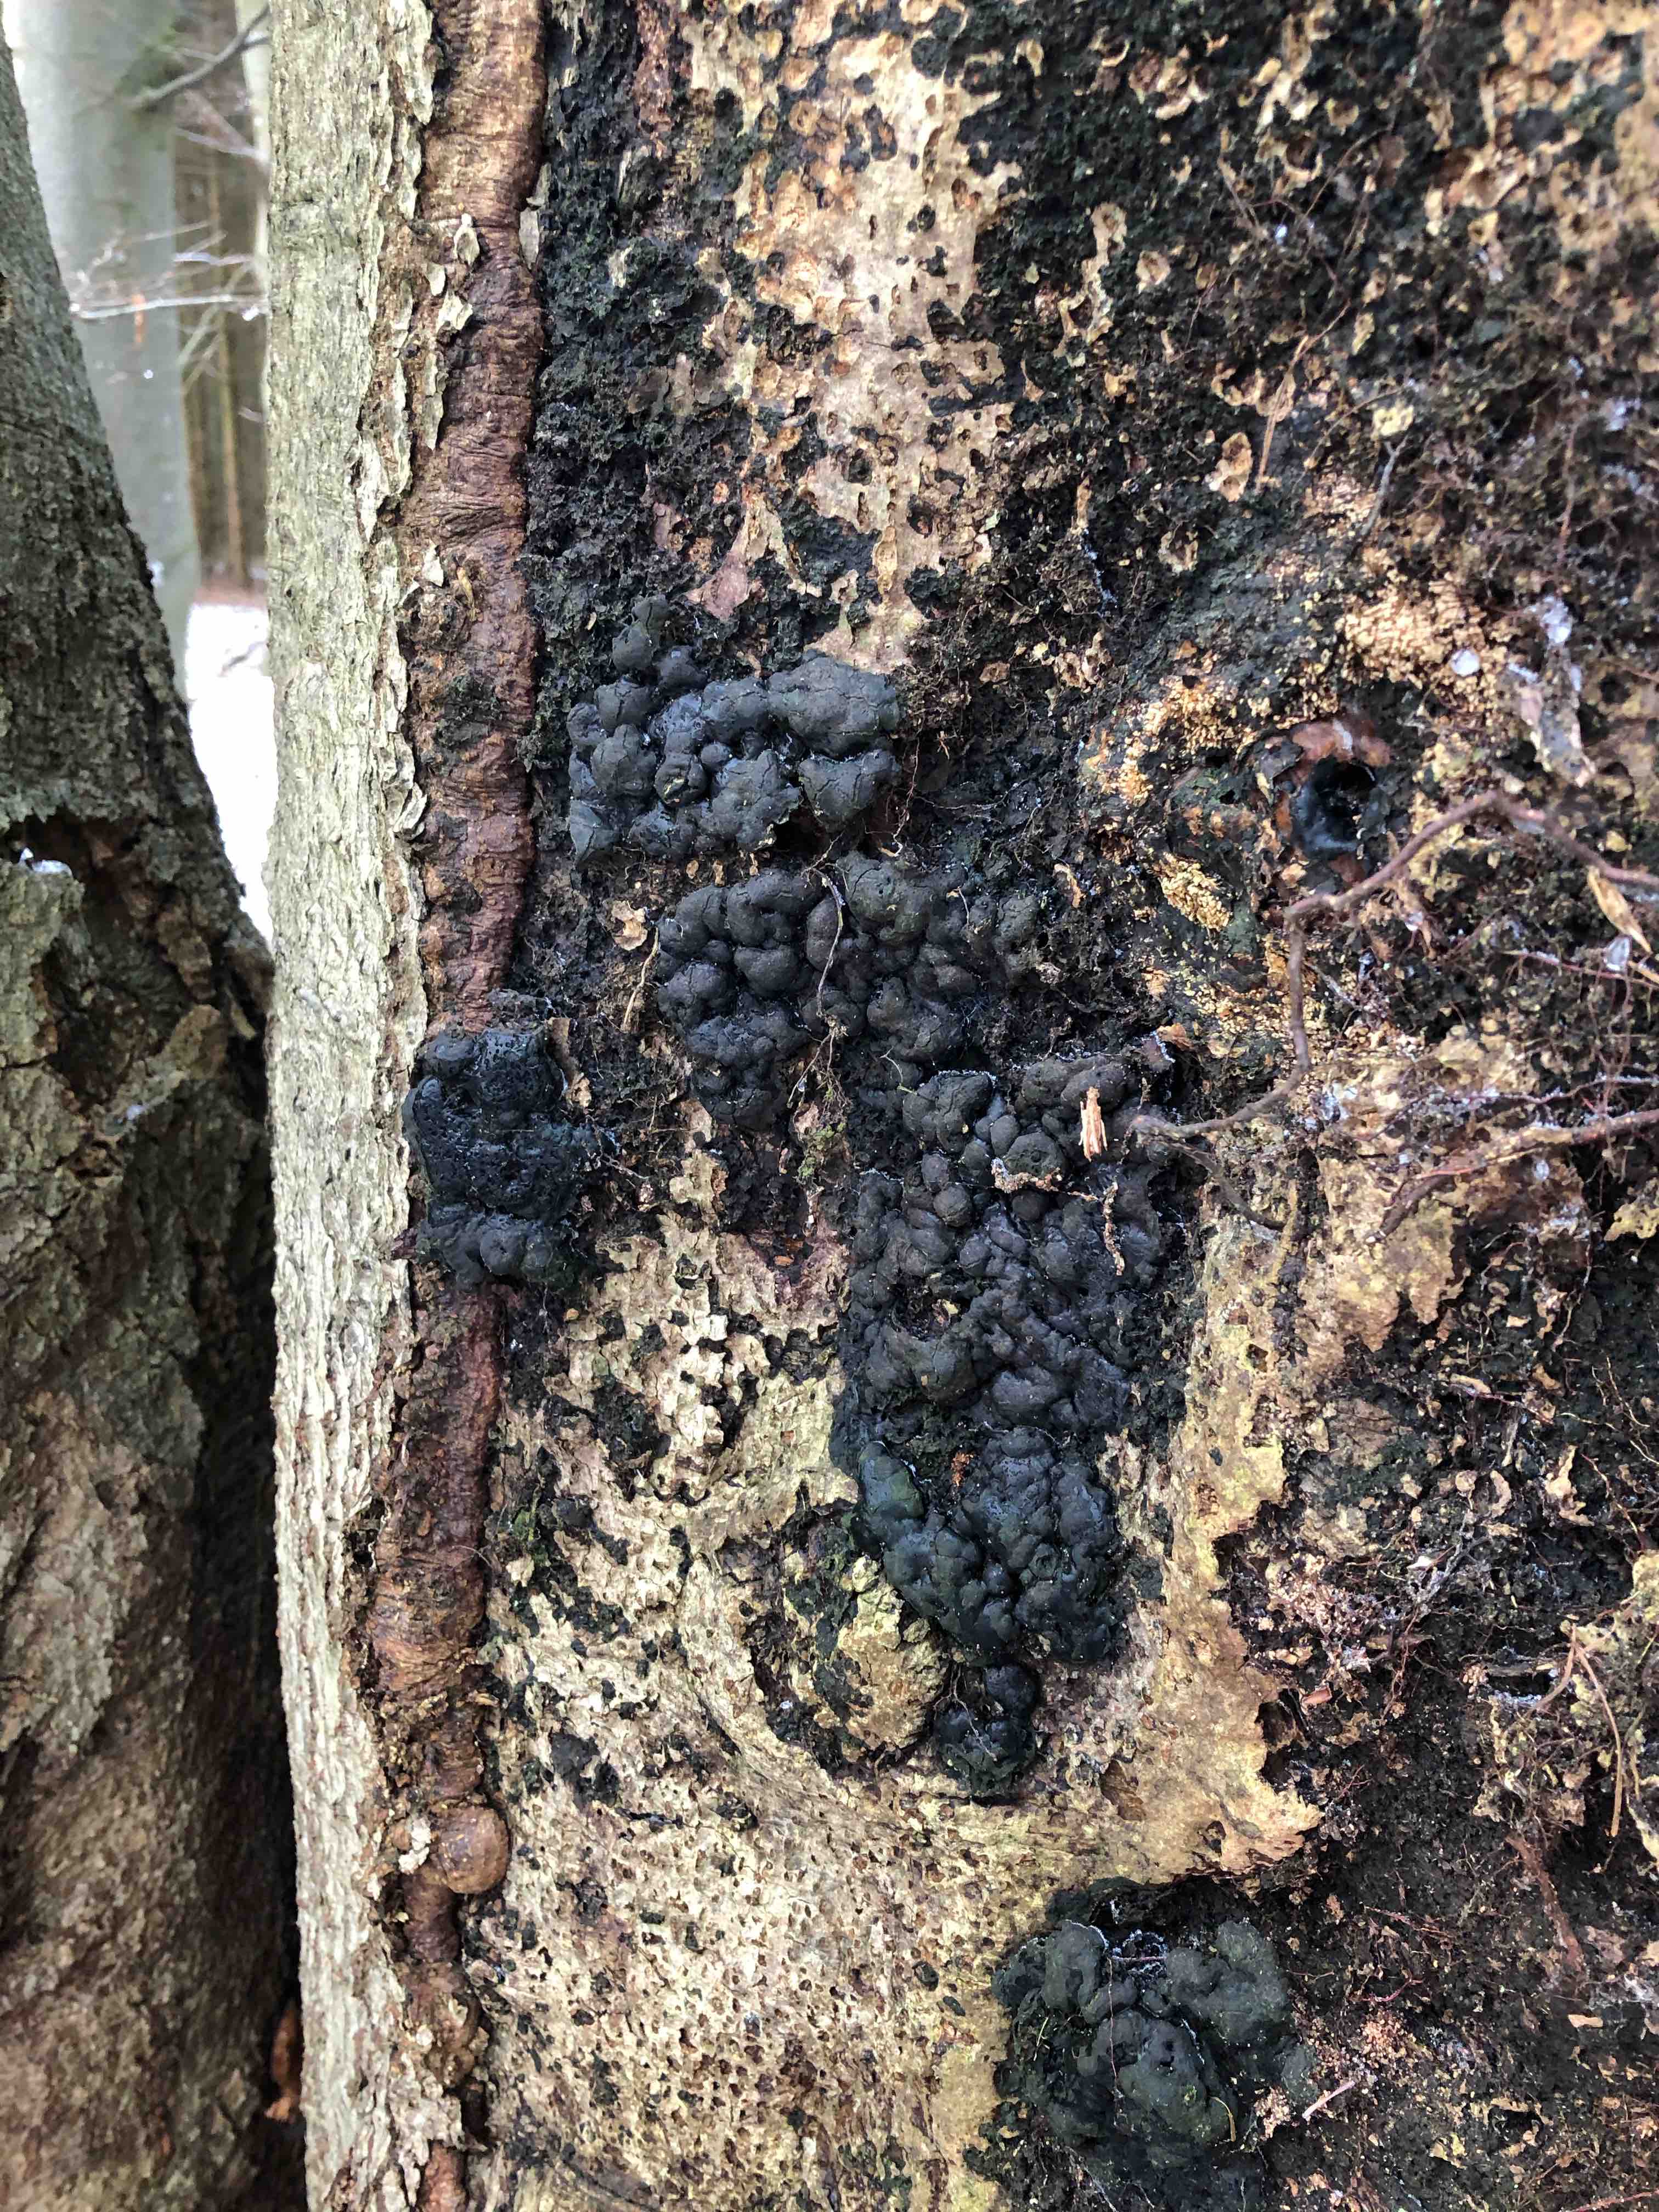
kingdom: Fungi
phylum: Ascomycota
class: Sordariomycetes
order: Xylariales
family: Xylariaceae
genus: Kretzschmaria
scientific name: Kretzschmaria deusta
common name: stor kulsvamp
